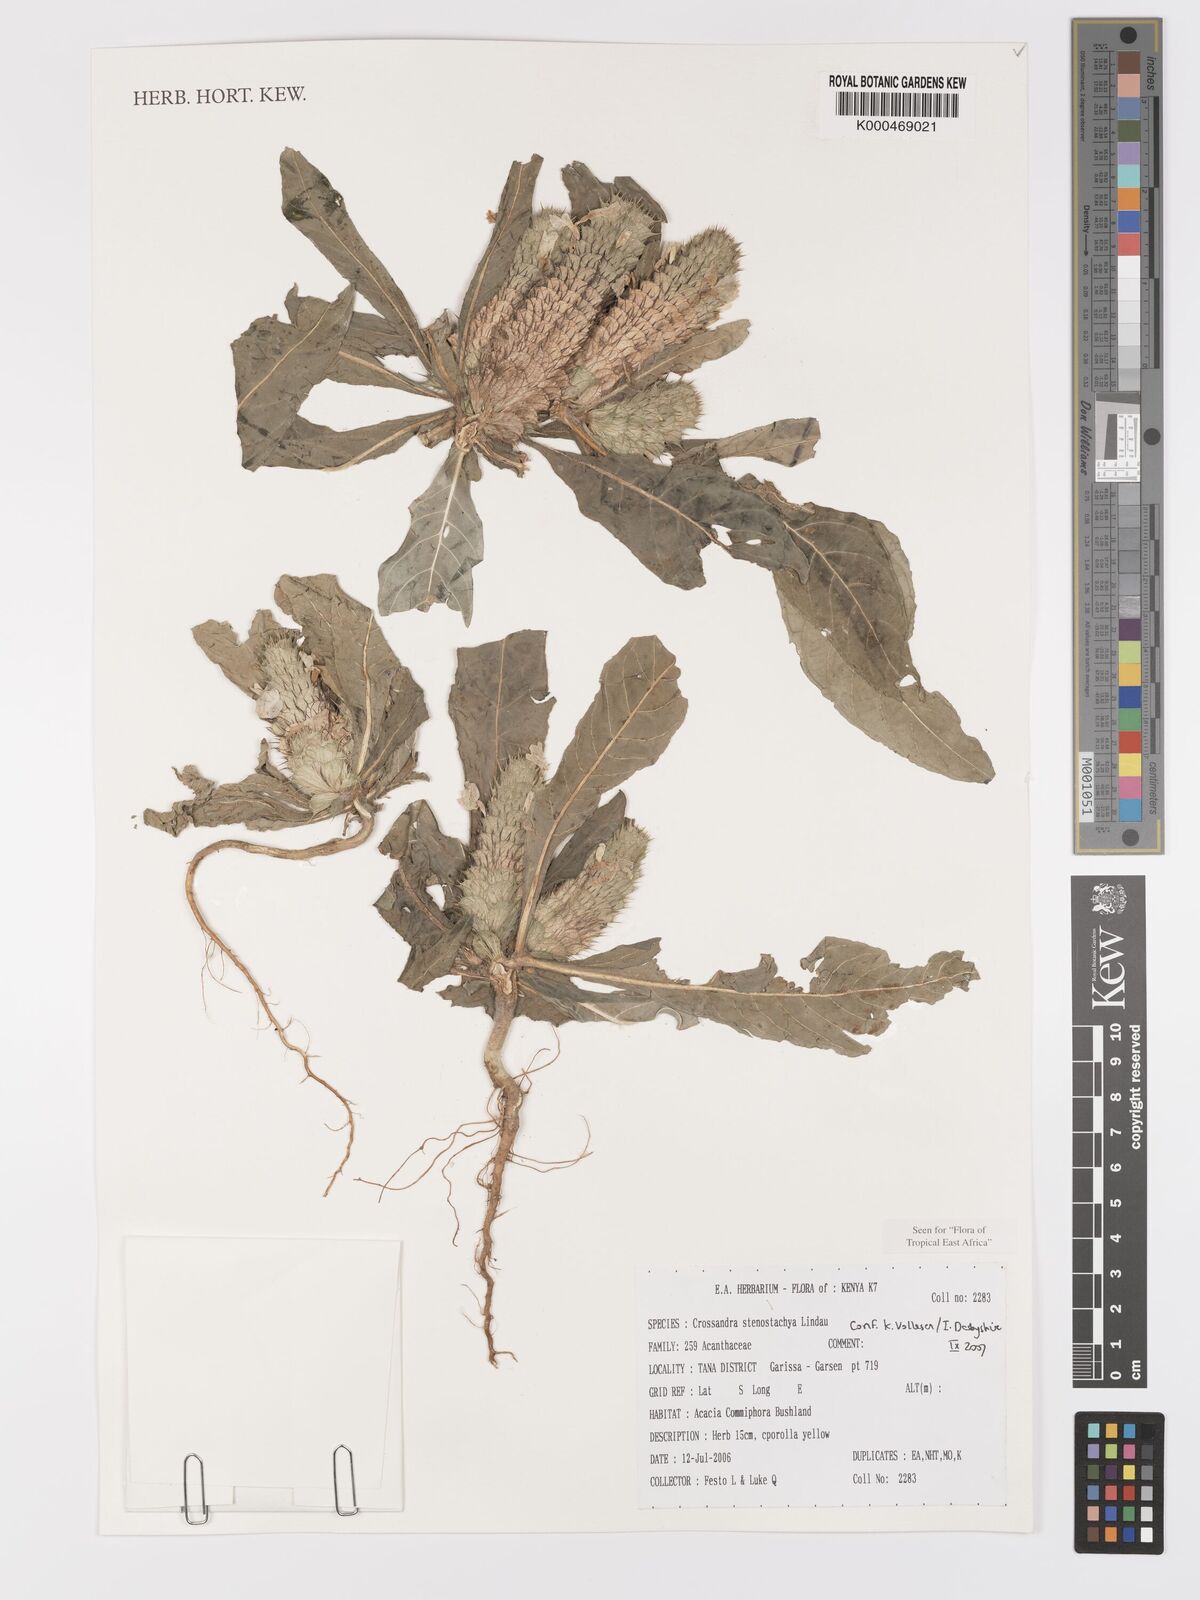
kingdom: Plantae
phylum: Tracheophyta
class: Magnoliopsida
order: Lamiales
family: Acanthaceae
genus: Crossandra
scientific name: Crossandra stenostachya
